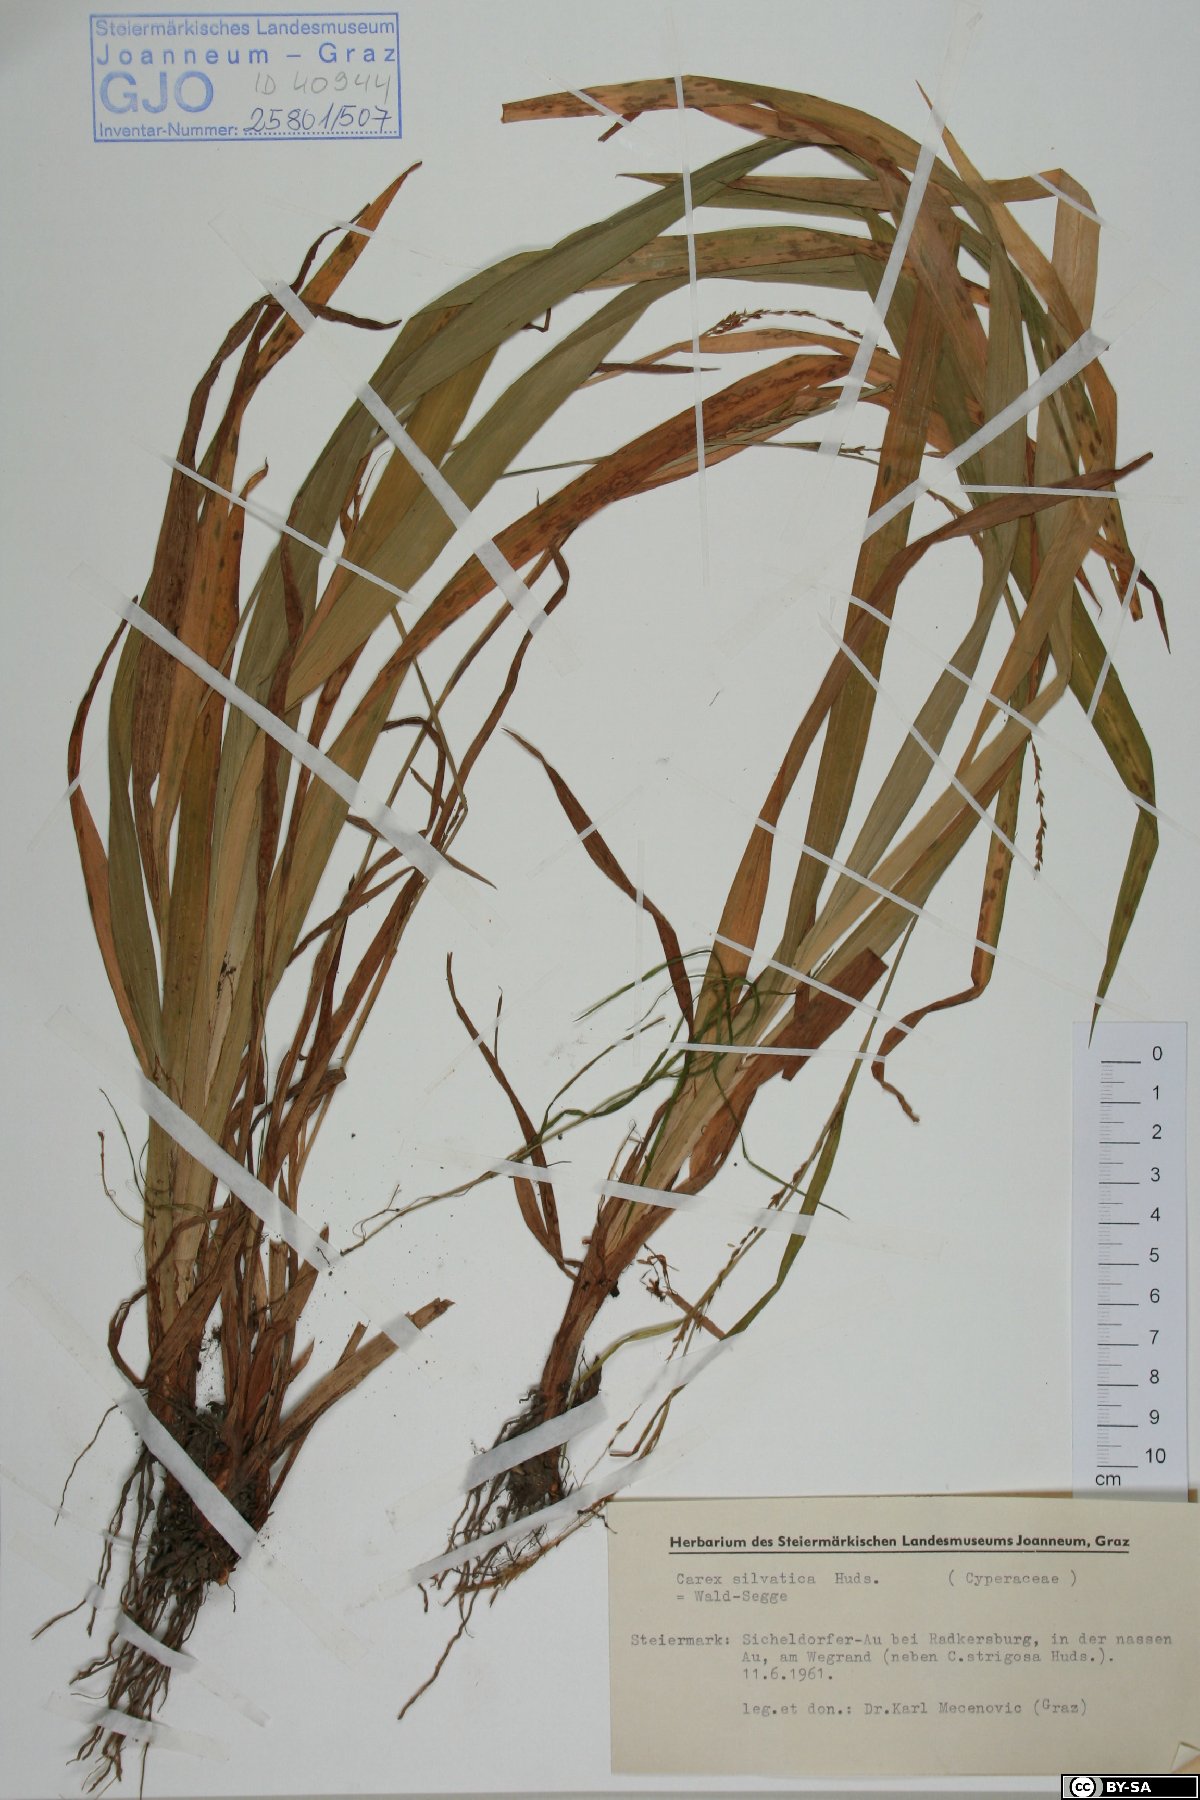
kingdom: Plantae
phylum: Tracheophyta
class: Liliopsida
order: Poales
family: Cyperaceae
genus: Carex
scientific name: Carex sylvatica
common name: Wood-sedge
